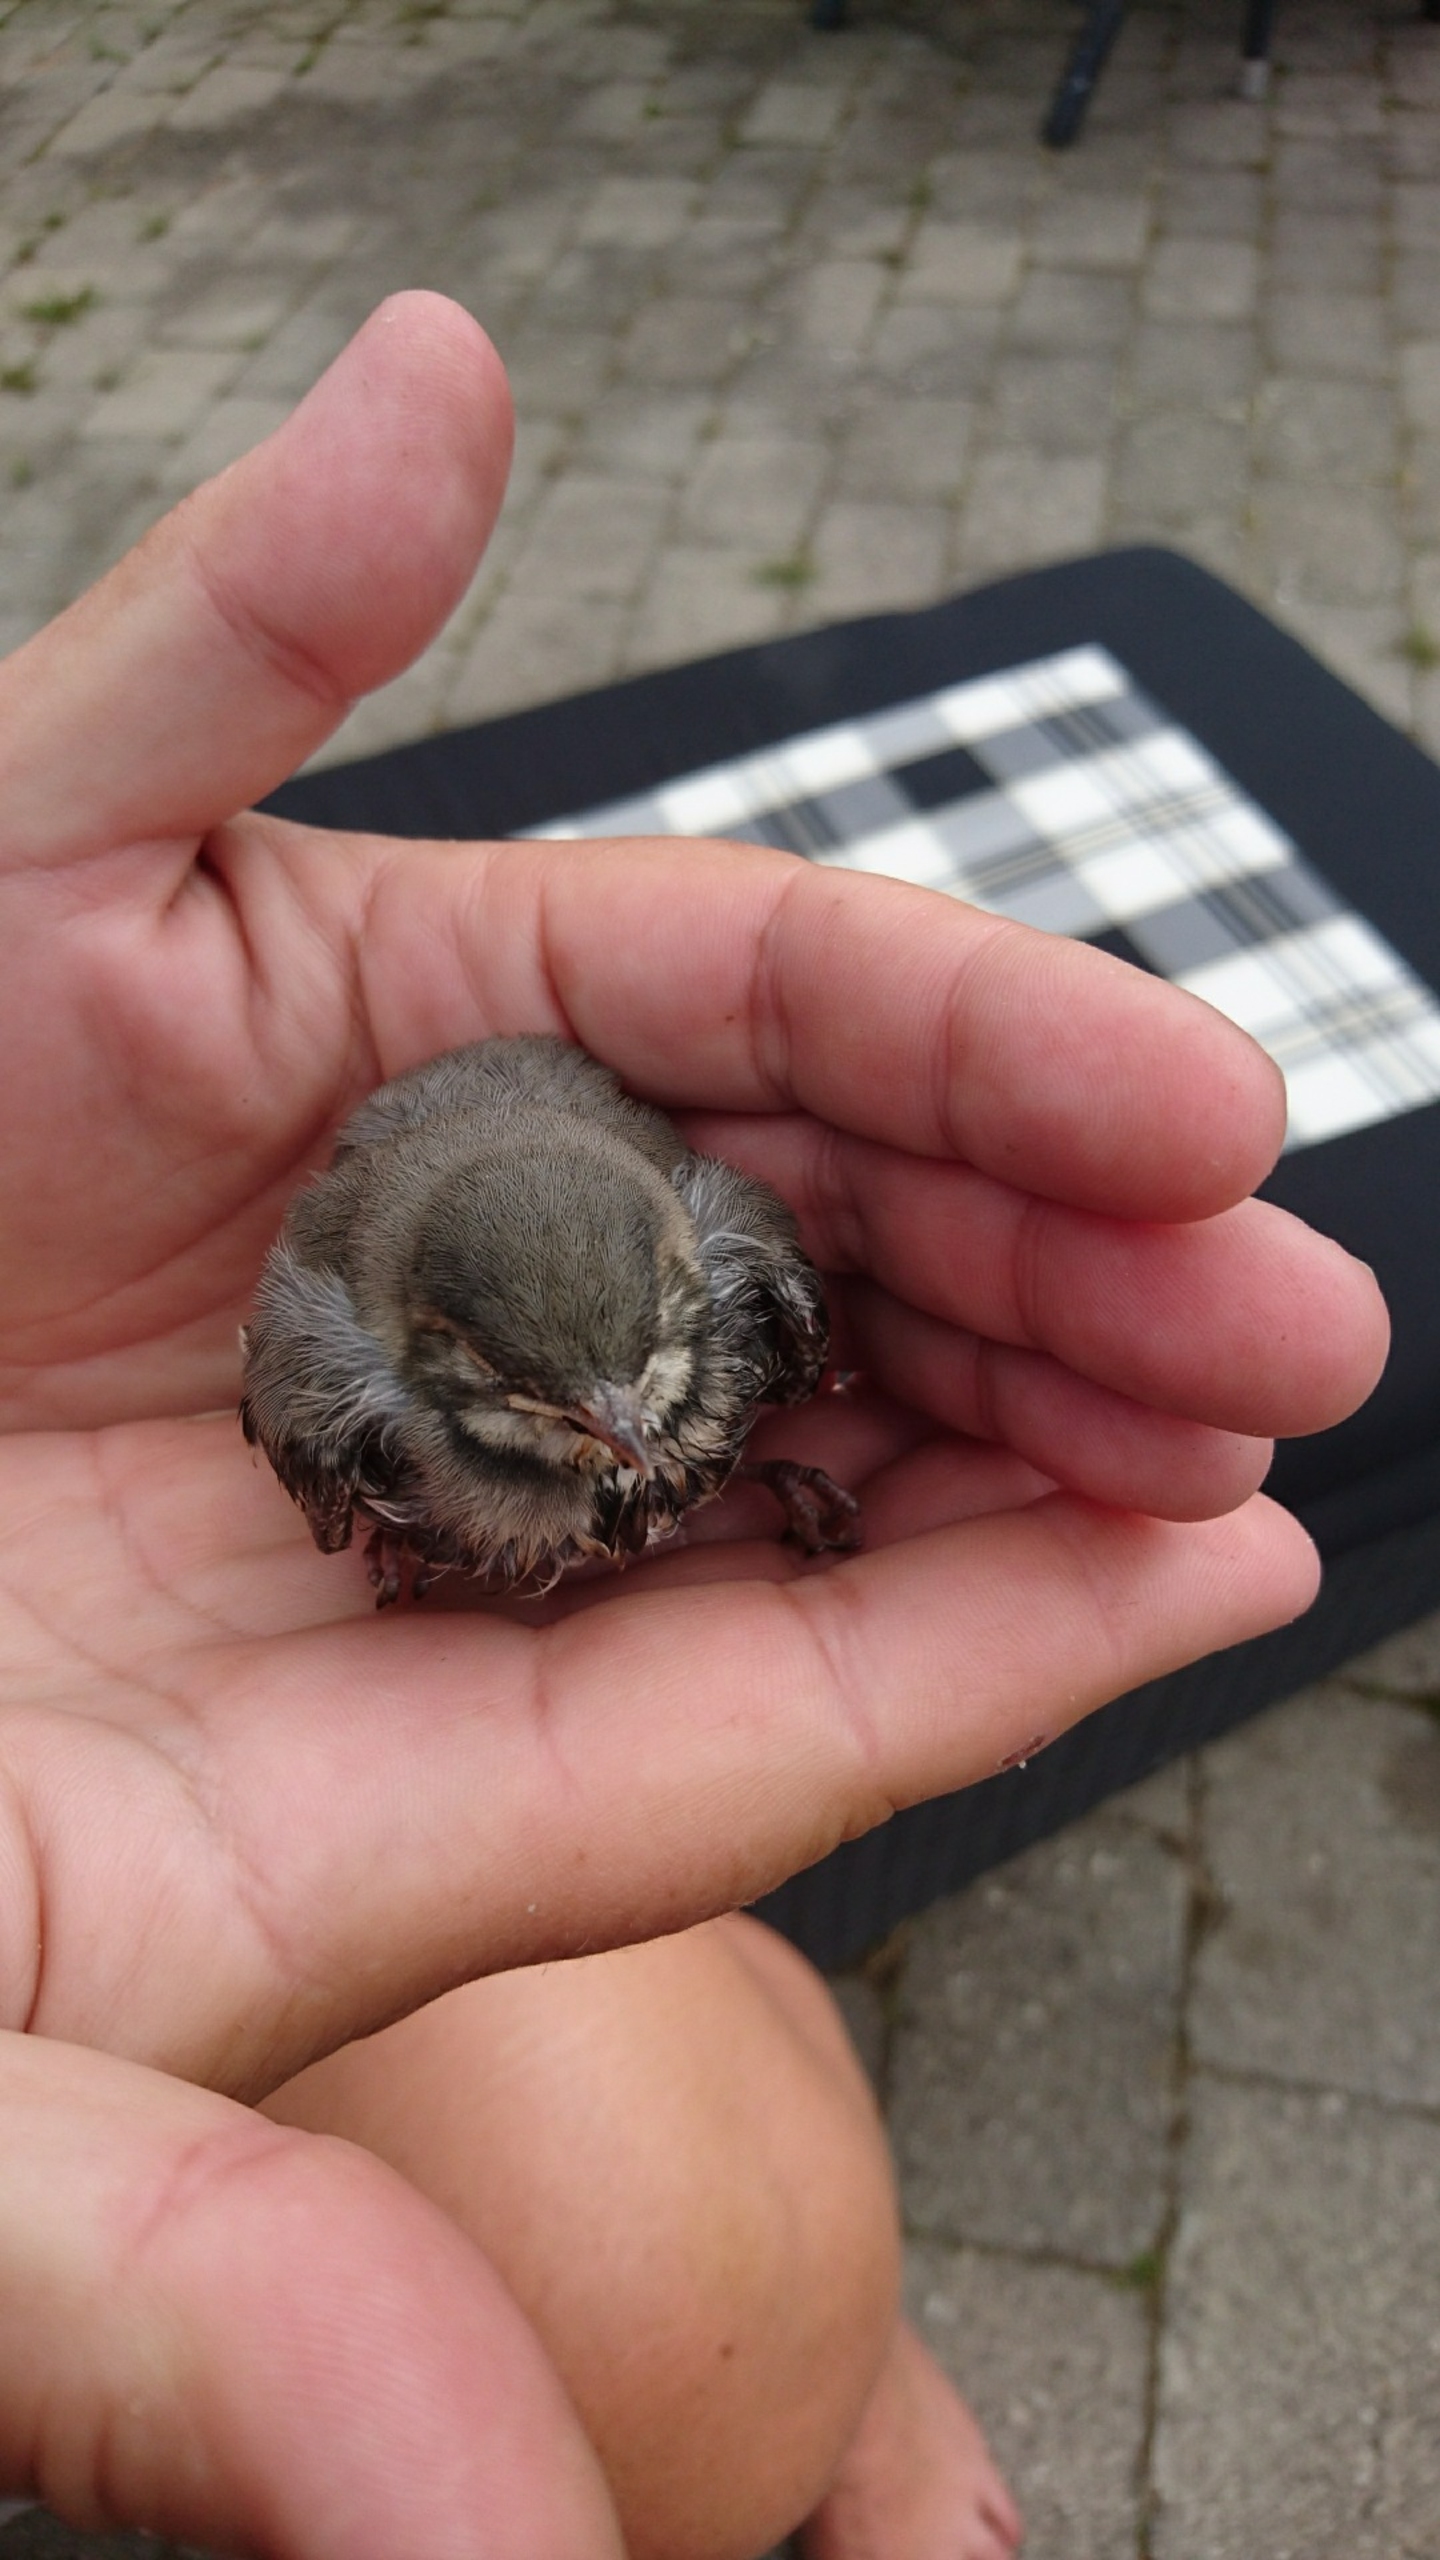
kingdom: Animalia
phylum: Chordata
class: Aves
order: Passeriformes
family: Motacillidae
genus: Motacilla
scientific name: Motacilla alba
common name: Hvid vipstjert
